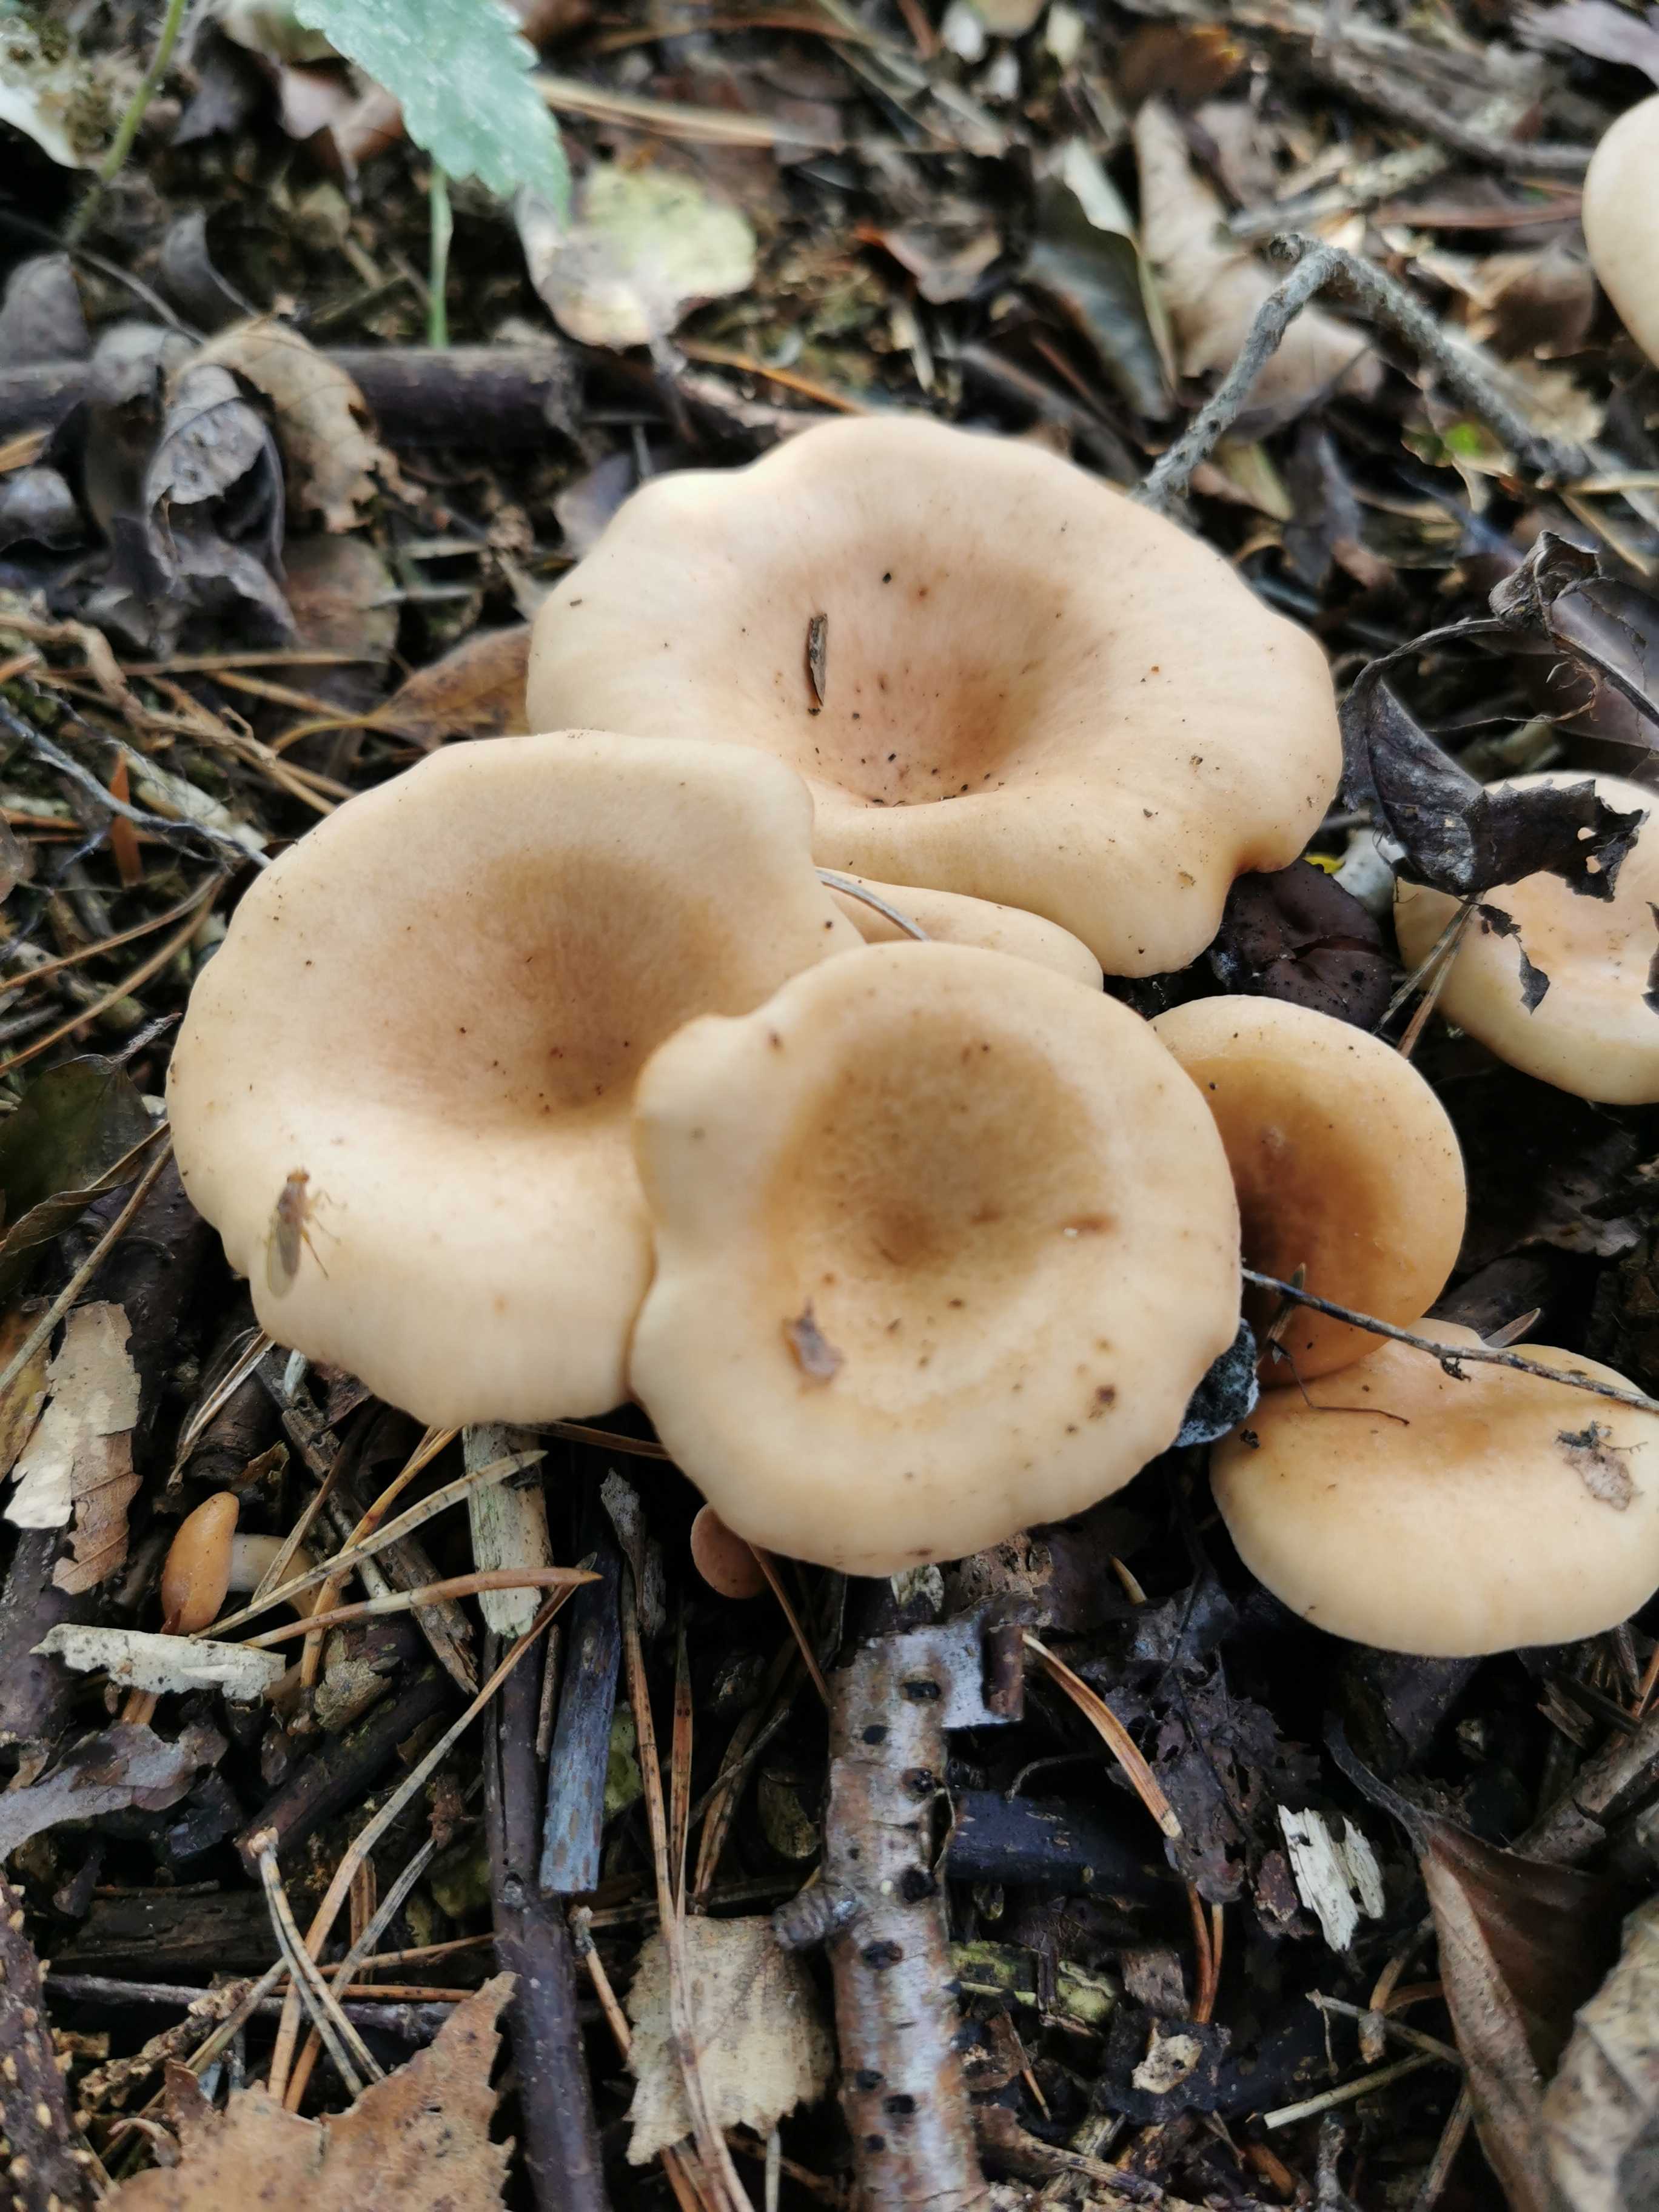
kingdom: Fungi
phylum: Basidiomycota
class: Agaricomycetes
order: Agaricales
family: Tricholomataceae
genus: Paralepista
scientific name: Paralepista flaccida
